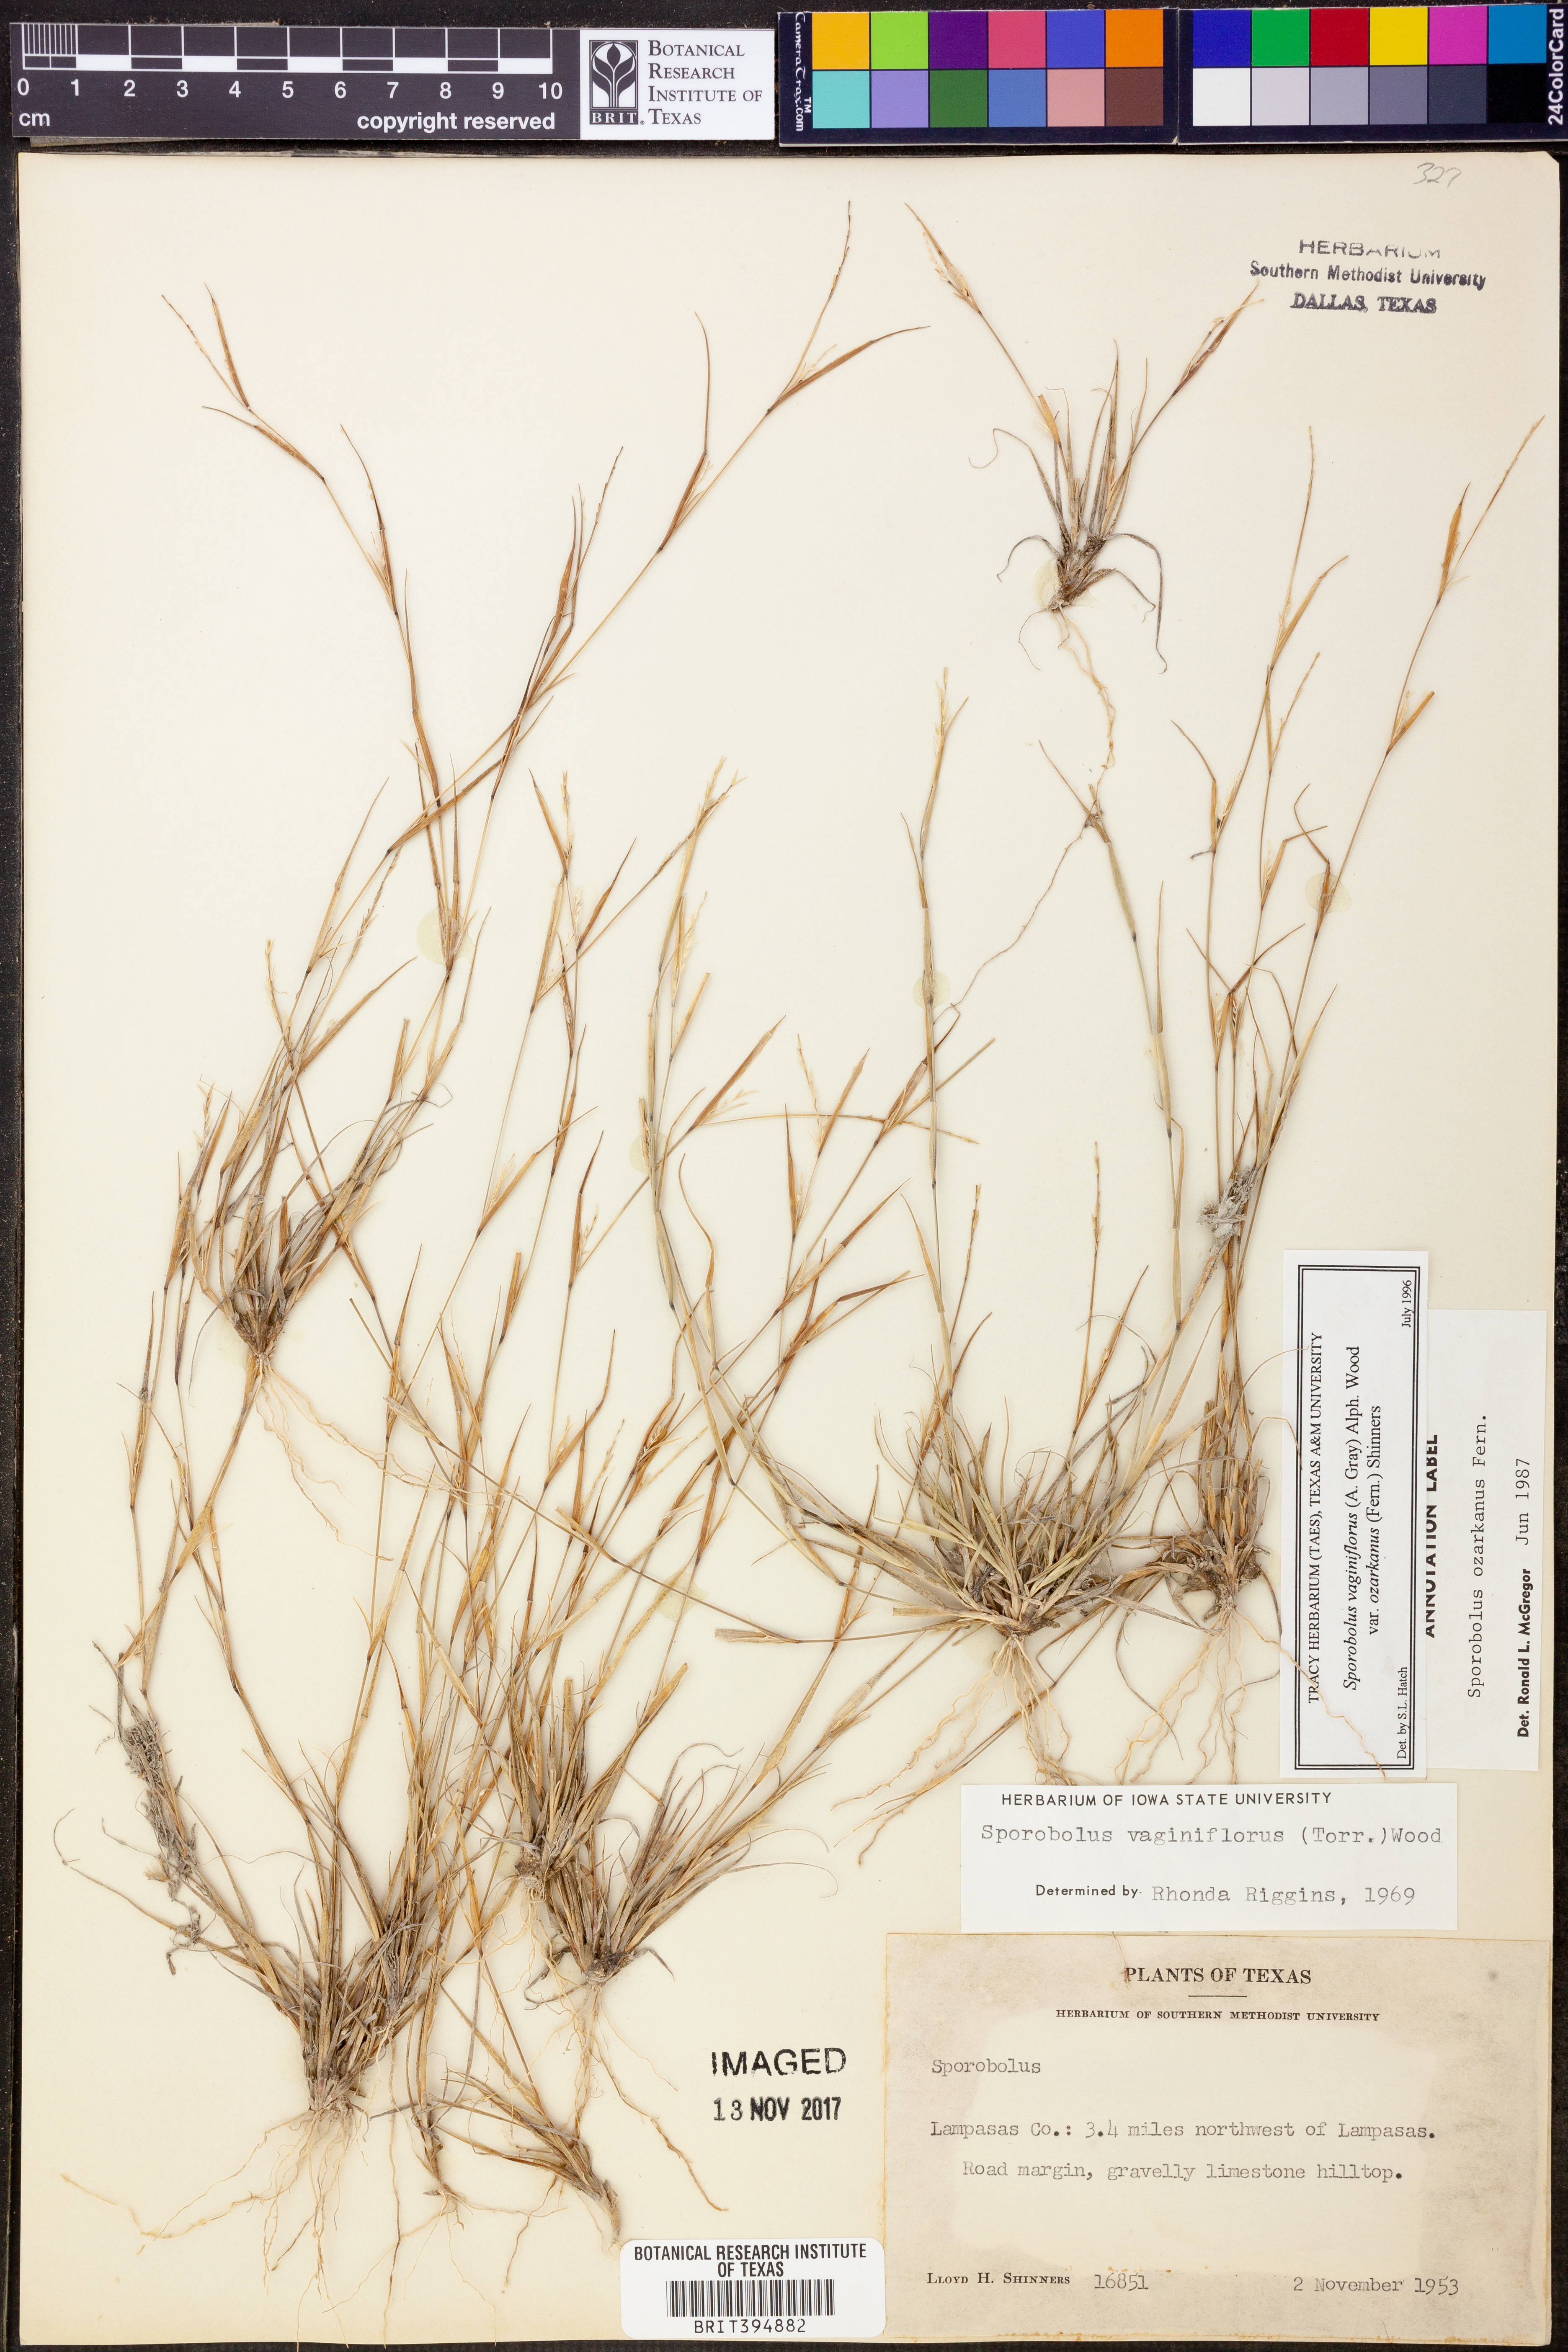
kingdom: Plantae
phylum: Tracheophyta
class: Liliopsida
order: Poales
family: Poaceae
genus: Sporobolus
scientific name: Sporobolus neglectus
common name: Annual dropseed
